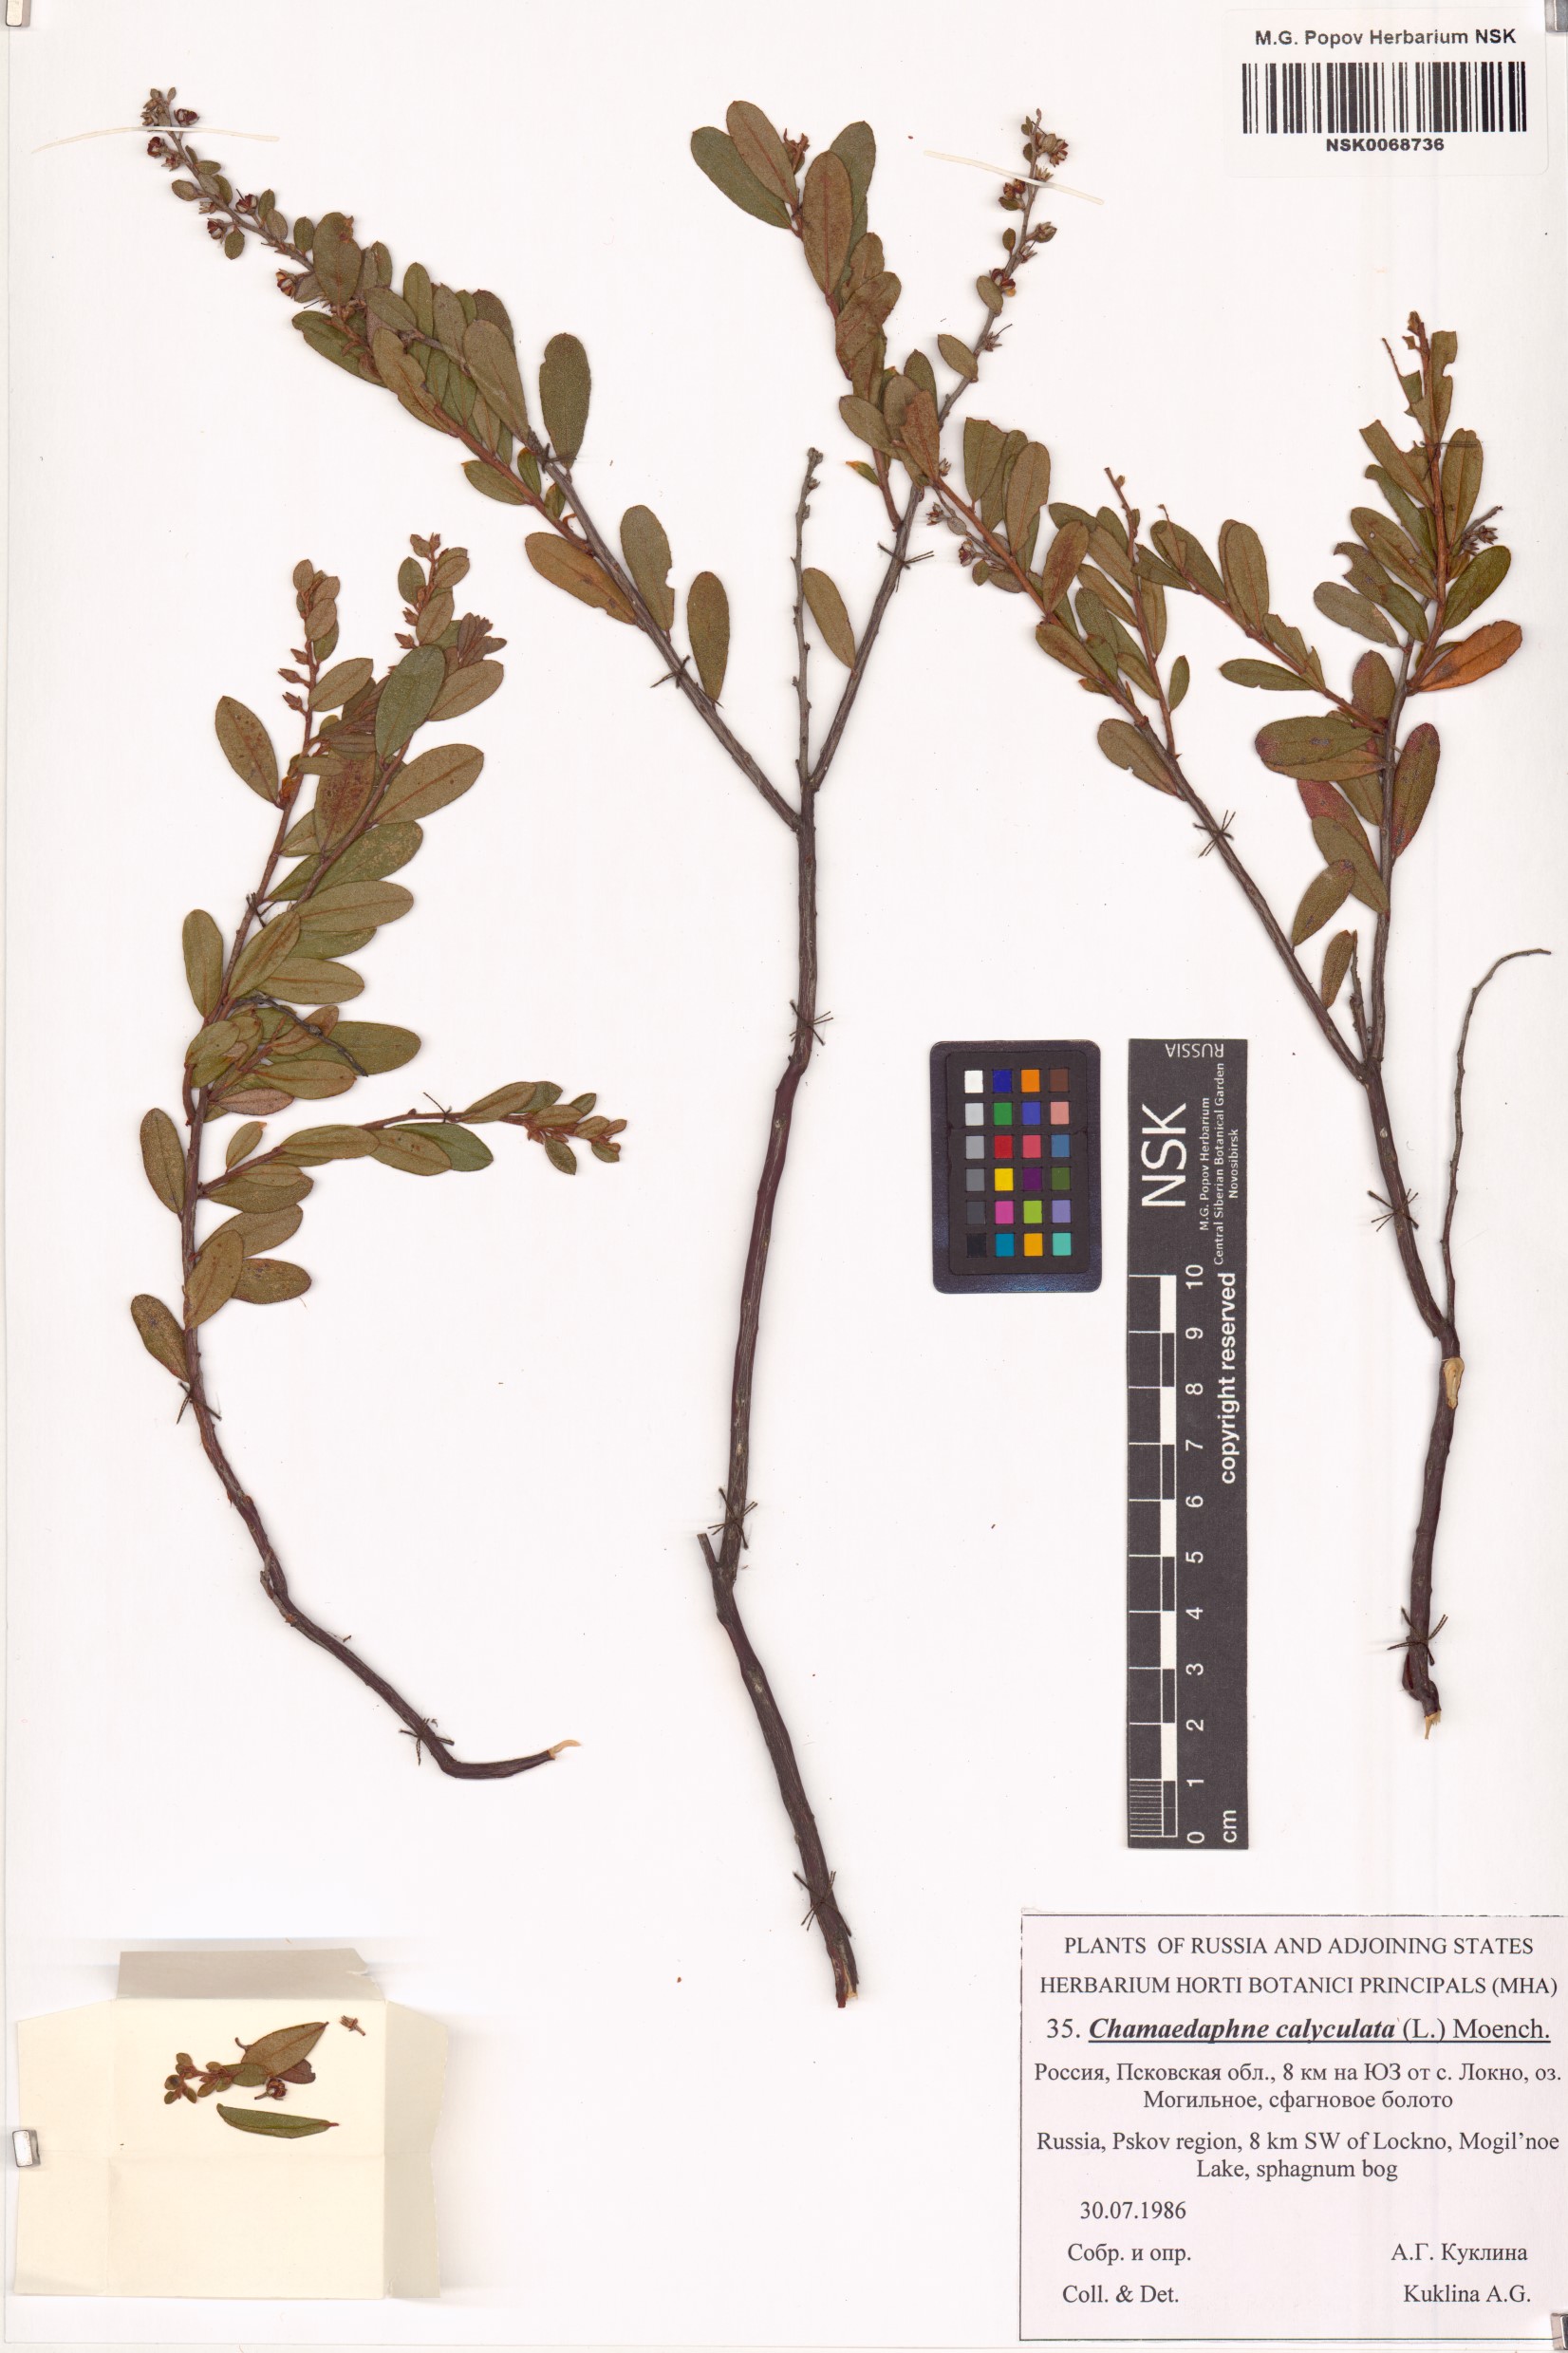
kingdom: Plantae
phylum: Tracheophyta
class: Magnoliopsida
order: Ericales
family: Ericaceae
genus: Chamaedaphne
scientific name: Chamaedaphne calyculata
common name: Leatherleaf
